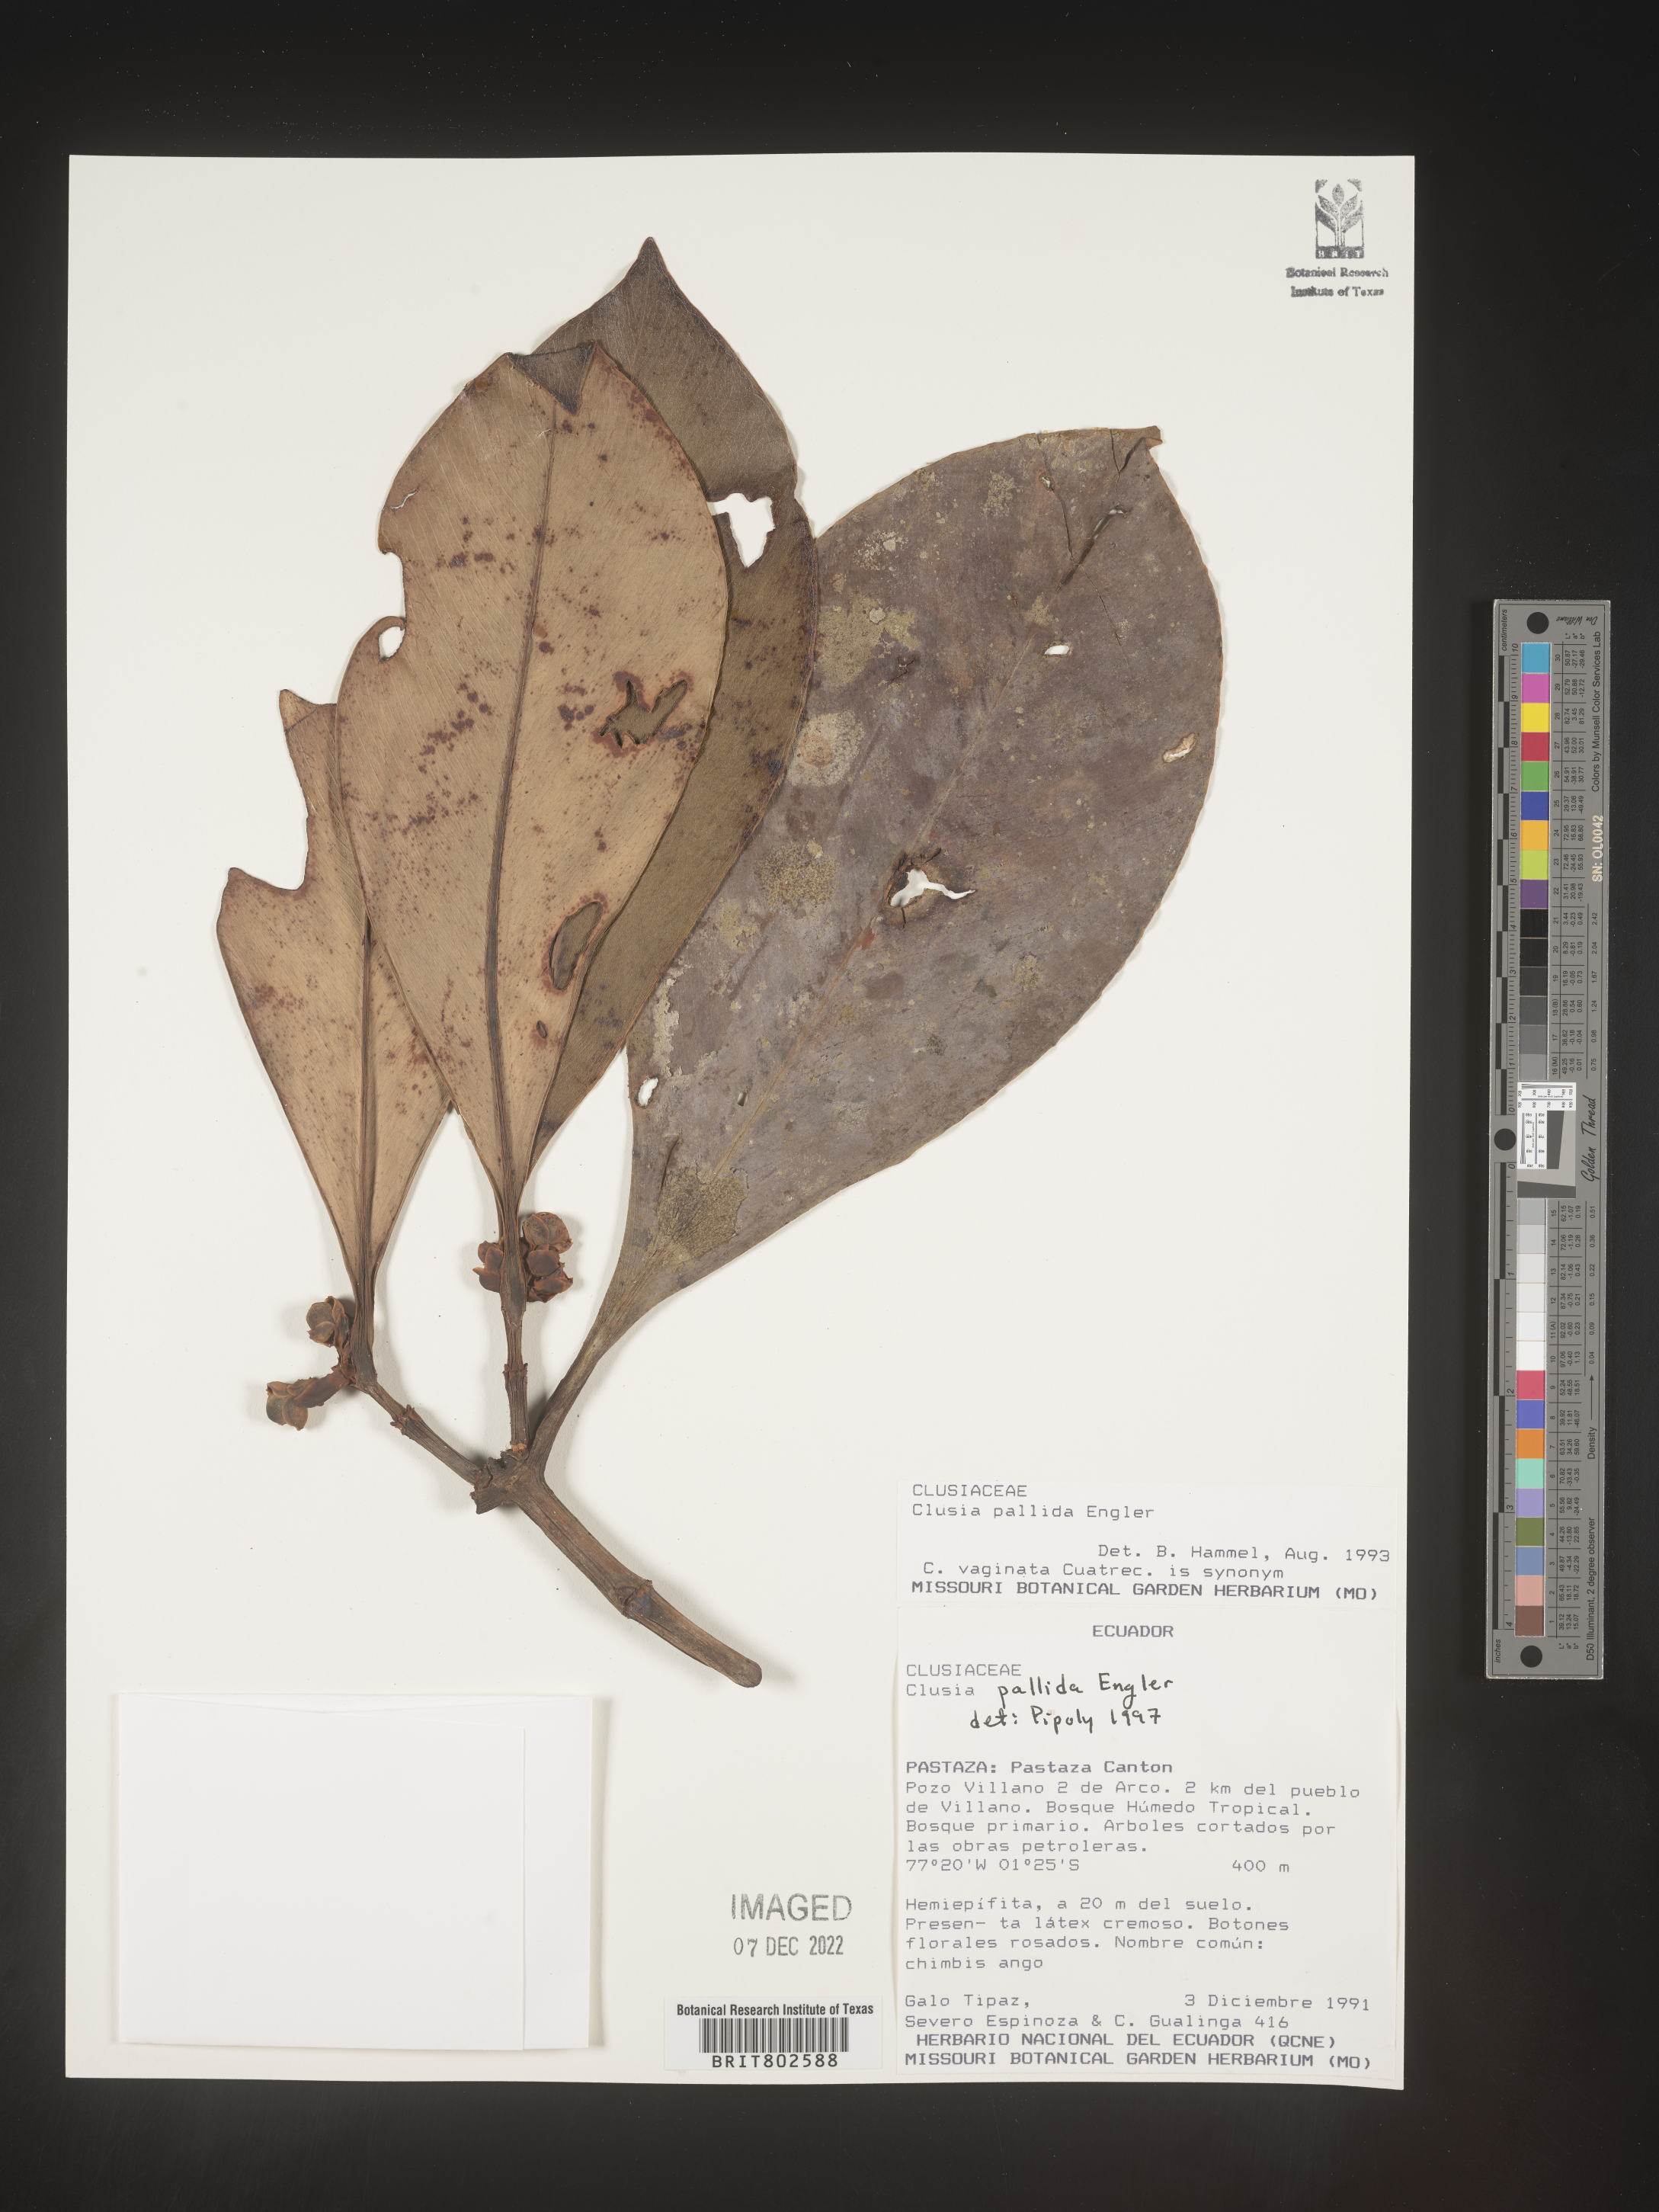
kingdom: Plantae
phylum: Tracheophyta
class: Magnoliopsida
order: Malpighiales
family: Clusiaceae
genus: Clusia
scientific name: Clusia pallida
